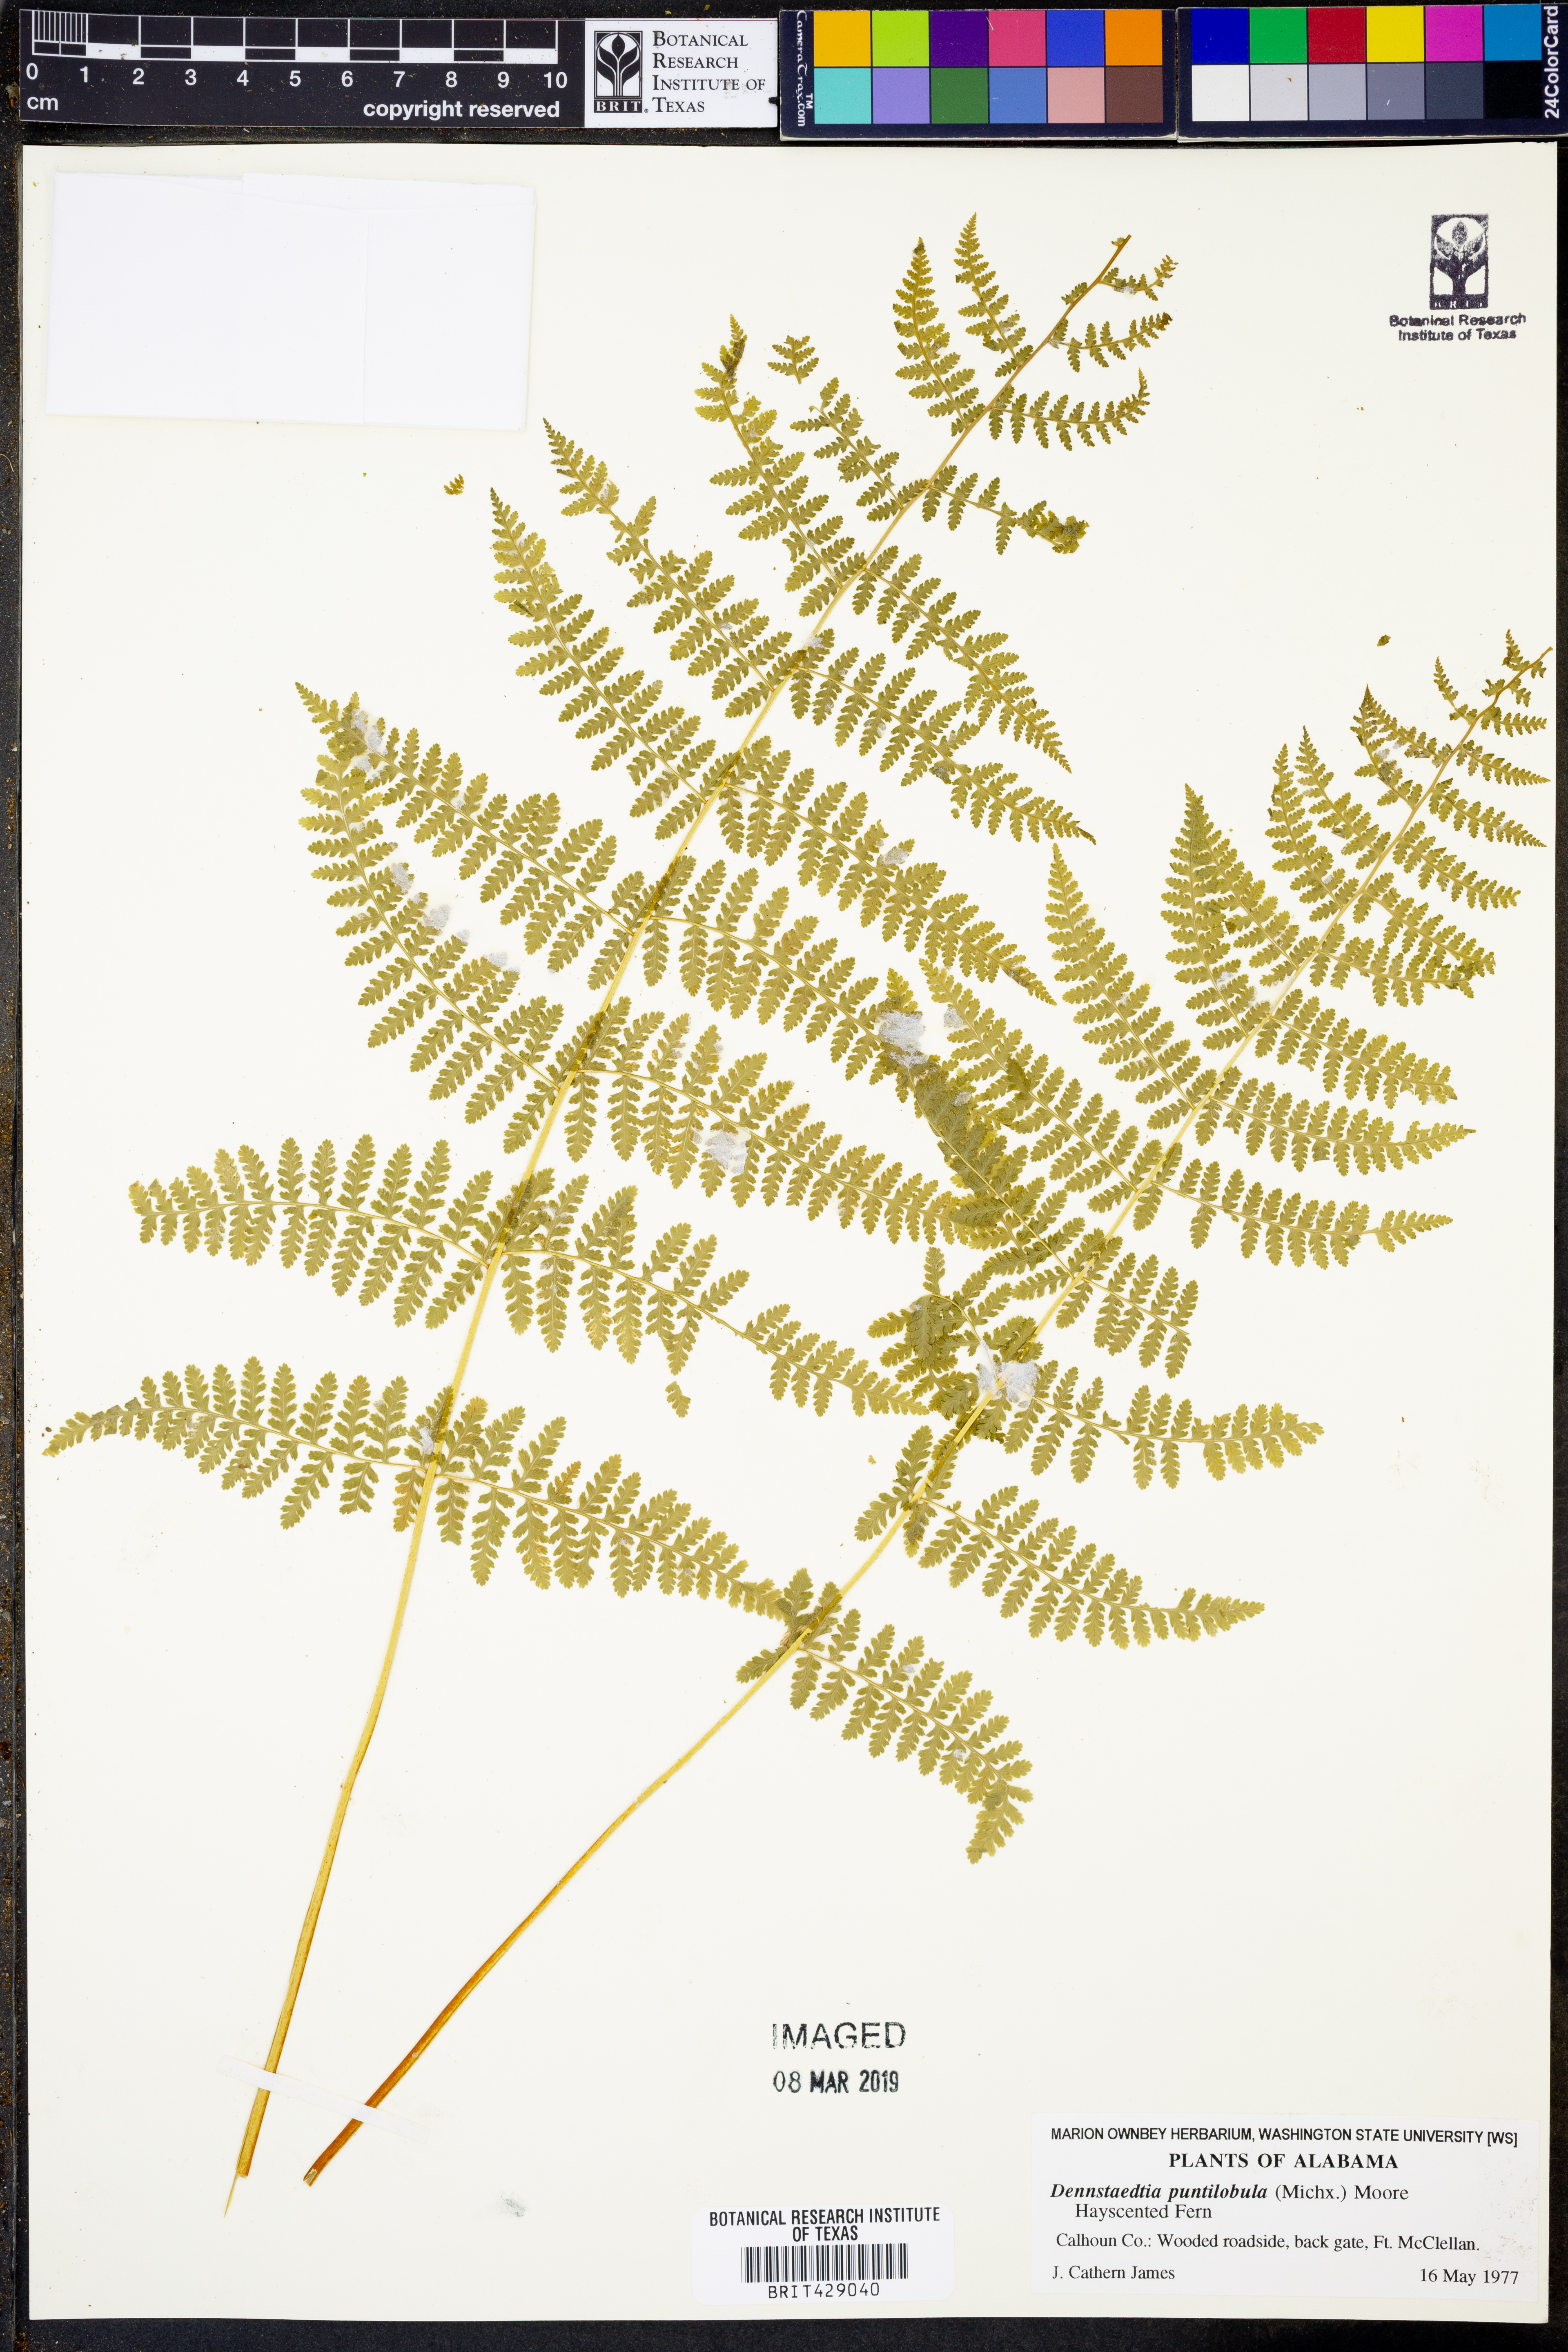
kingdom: Plantae
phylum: Tracheophyta
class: Polypodiopsida
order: Polypodiales
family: Dennstaedtiaceae
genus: Sitobolium
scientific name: Sitobolium punctilobum
